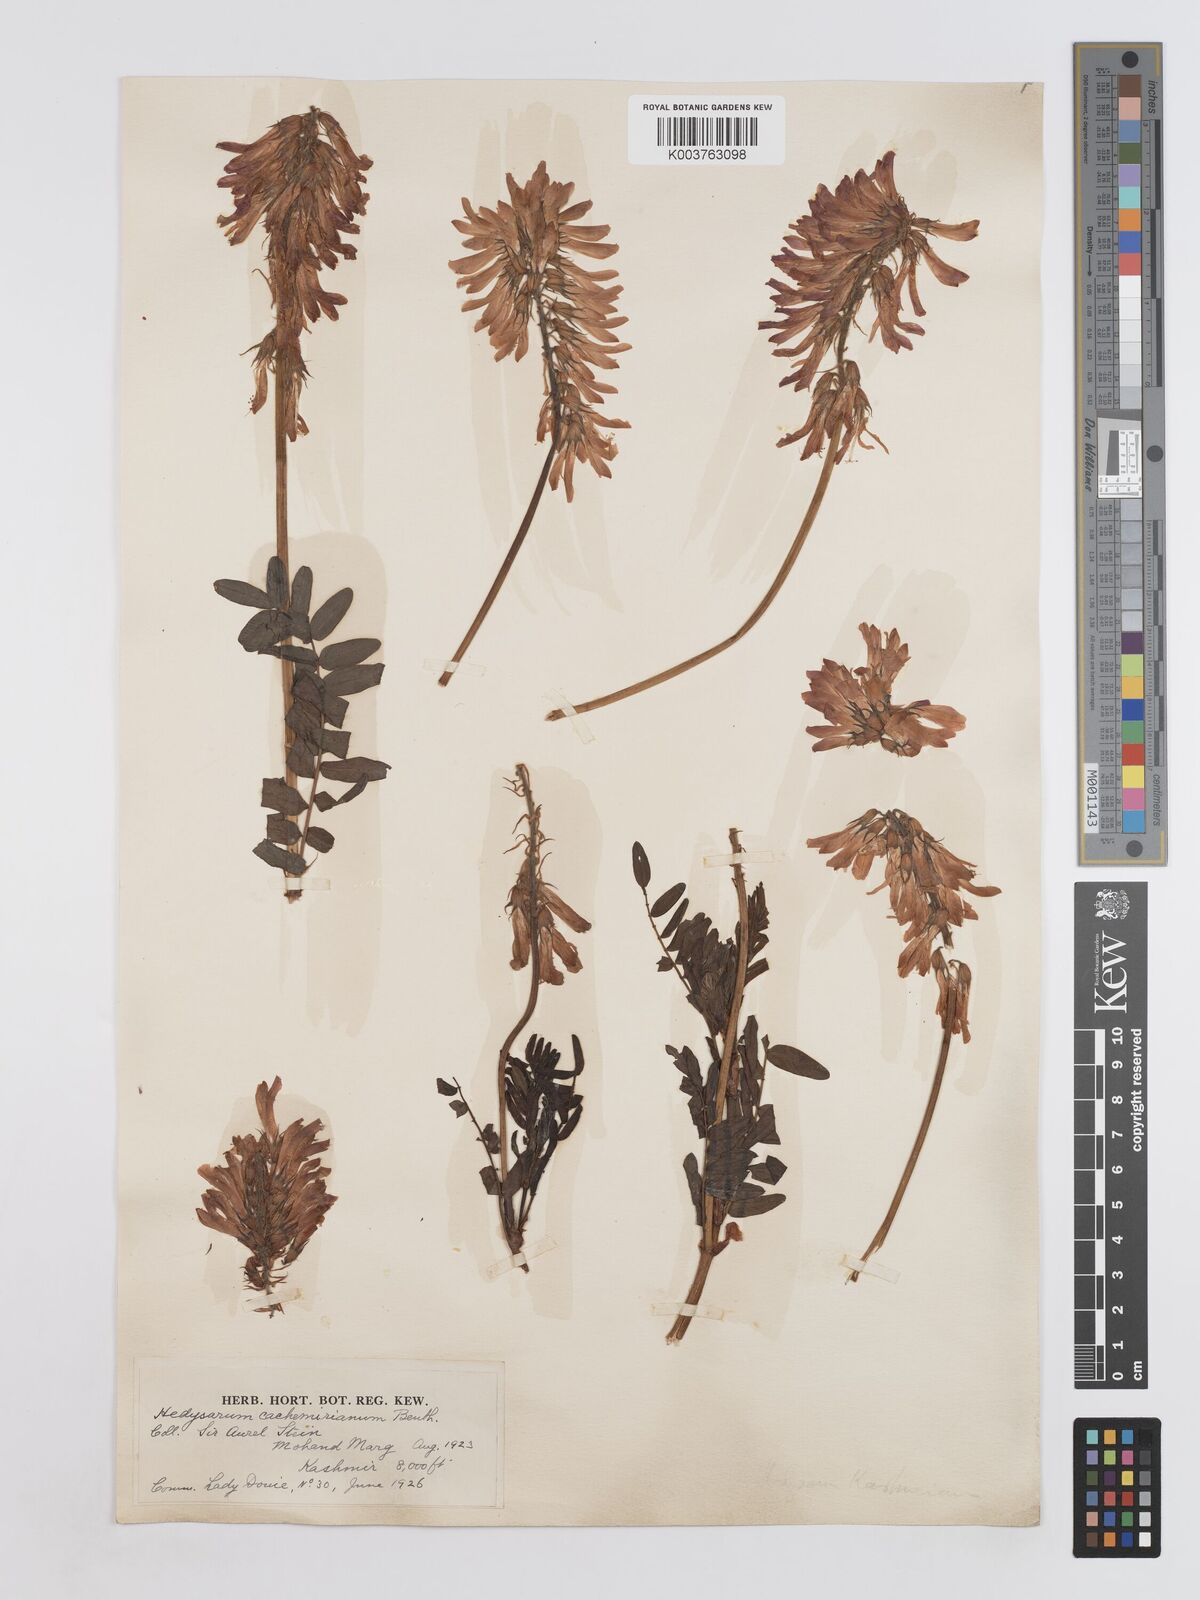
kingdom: Plantae
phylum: Tracheophyta
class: Magnoliopsida
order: Fabales
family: Fabaceae
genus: Hedysarum
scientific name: Hedysarum cachemirianum
